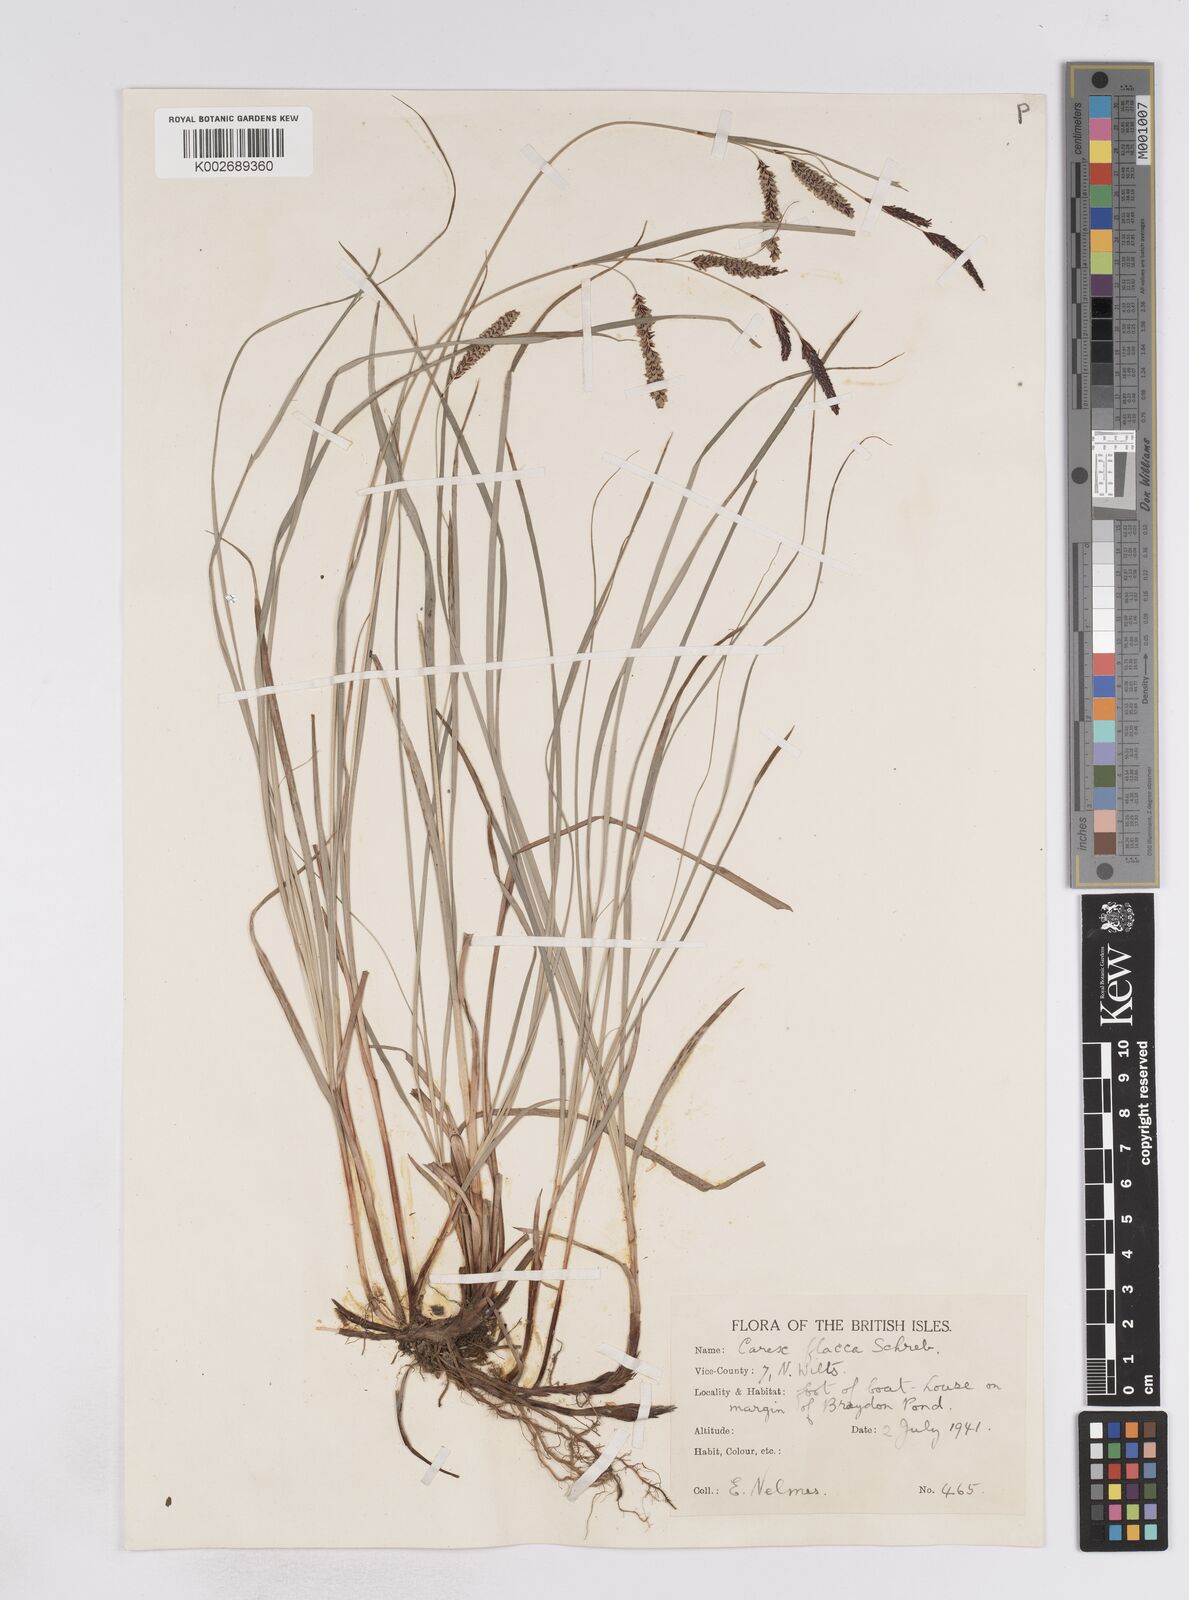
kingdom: Plantae
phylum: Tracheophyta
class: Liliopsida
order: Poales
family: Cyperaceae
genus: Carex
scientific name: Carex flacca
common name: Glaucous sedge
